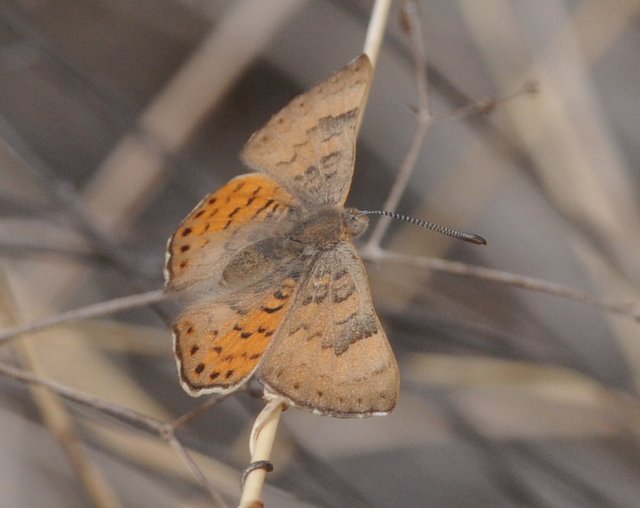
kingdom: Animalia
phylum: Arthropoda
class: Insecta
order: Lepidoptera
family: Lycaenidae
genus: Emesis
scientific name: Emesis zela
